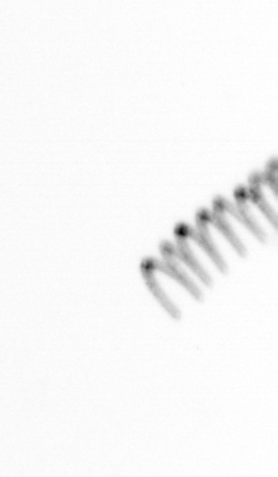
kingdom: Chromista
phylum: Ochrophyta
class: Bacillariophyceae
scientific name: Bacillariophyceae
